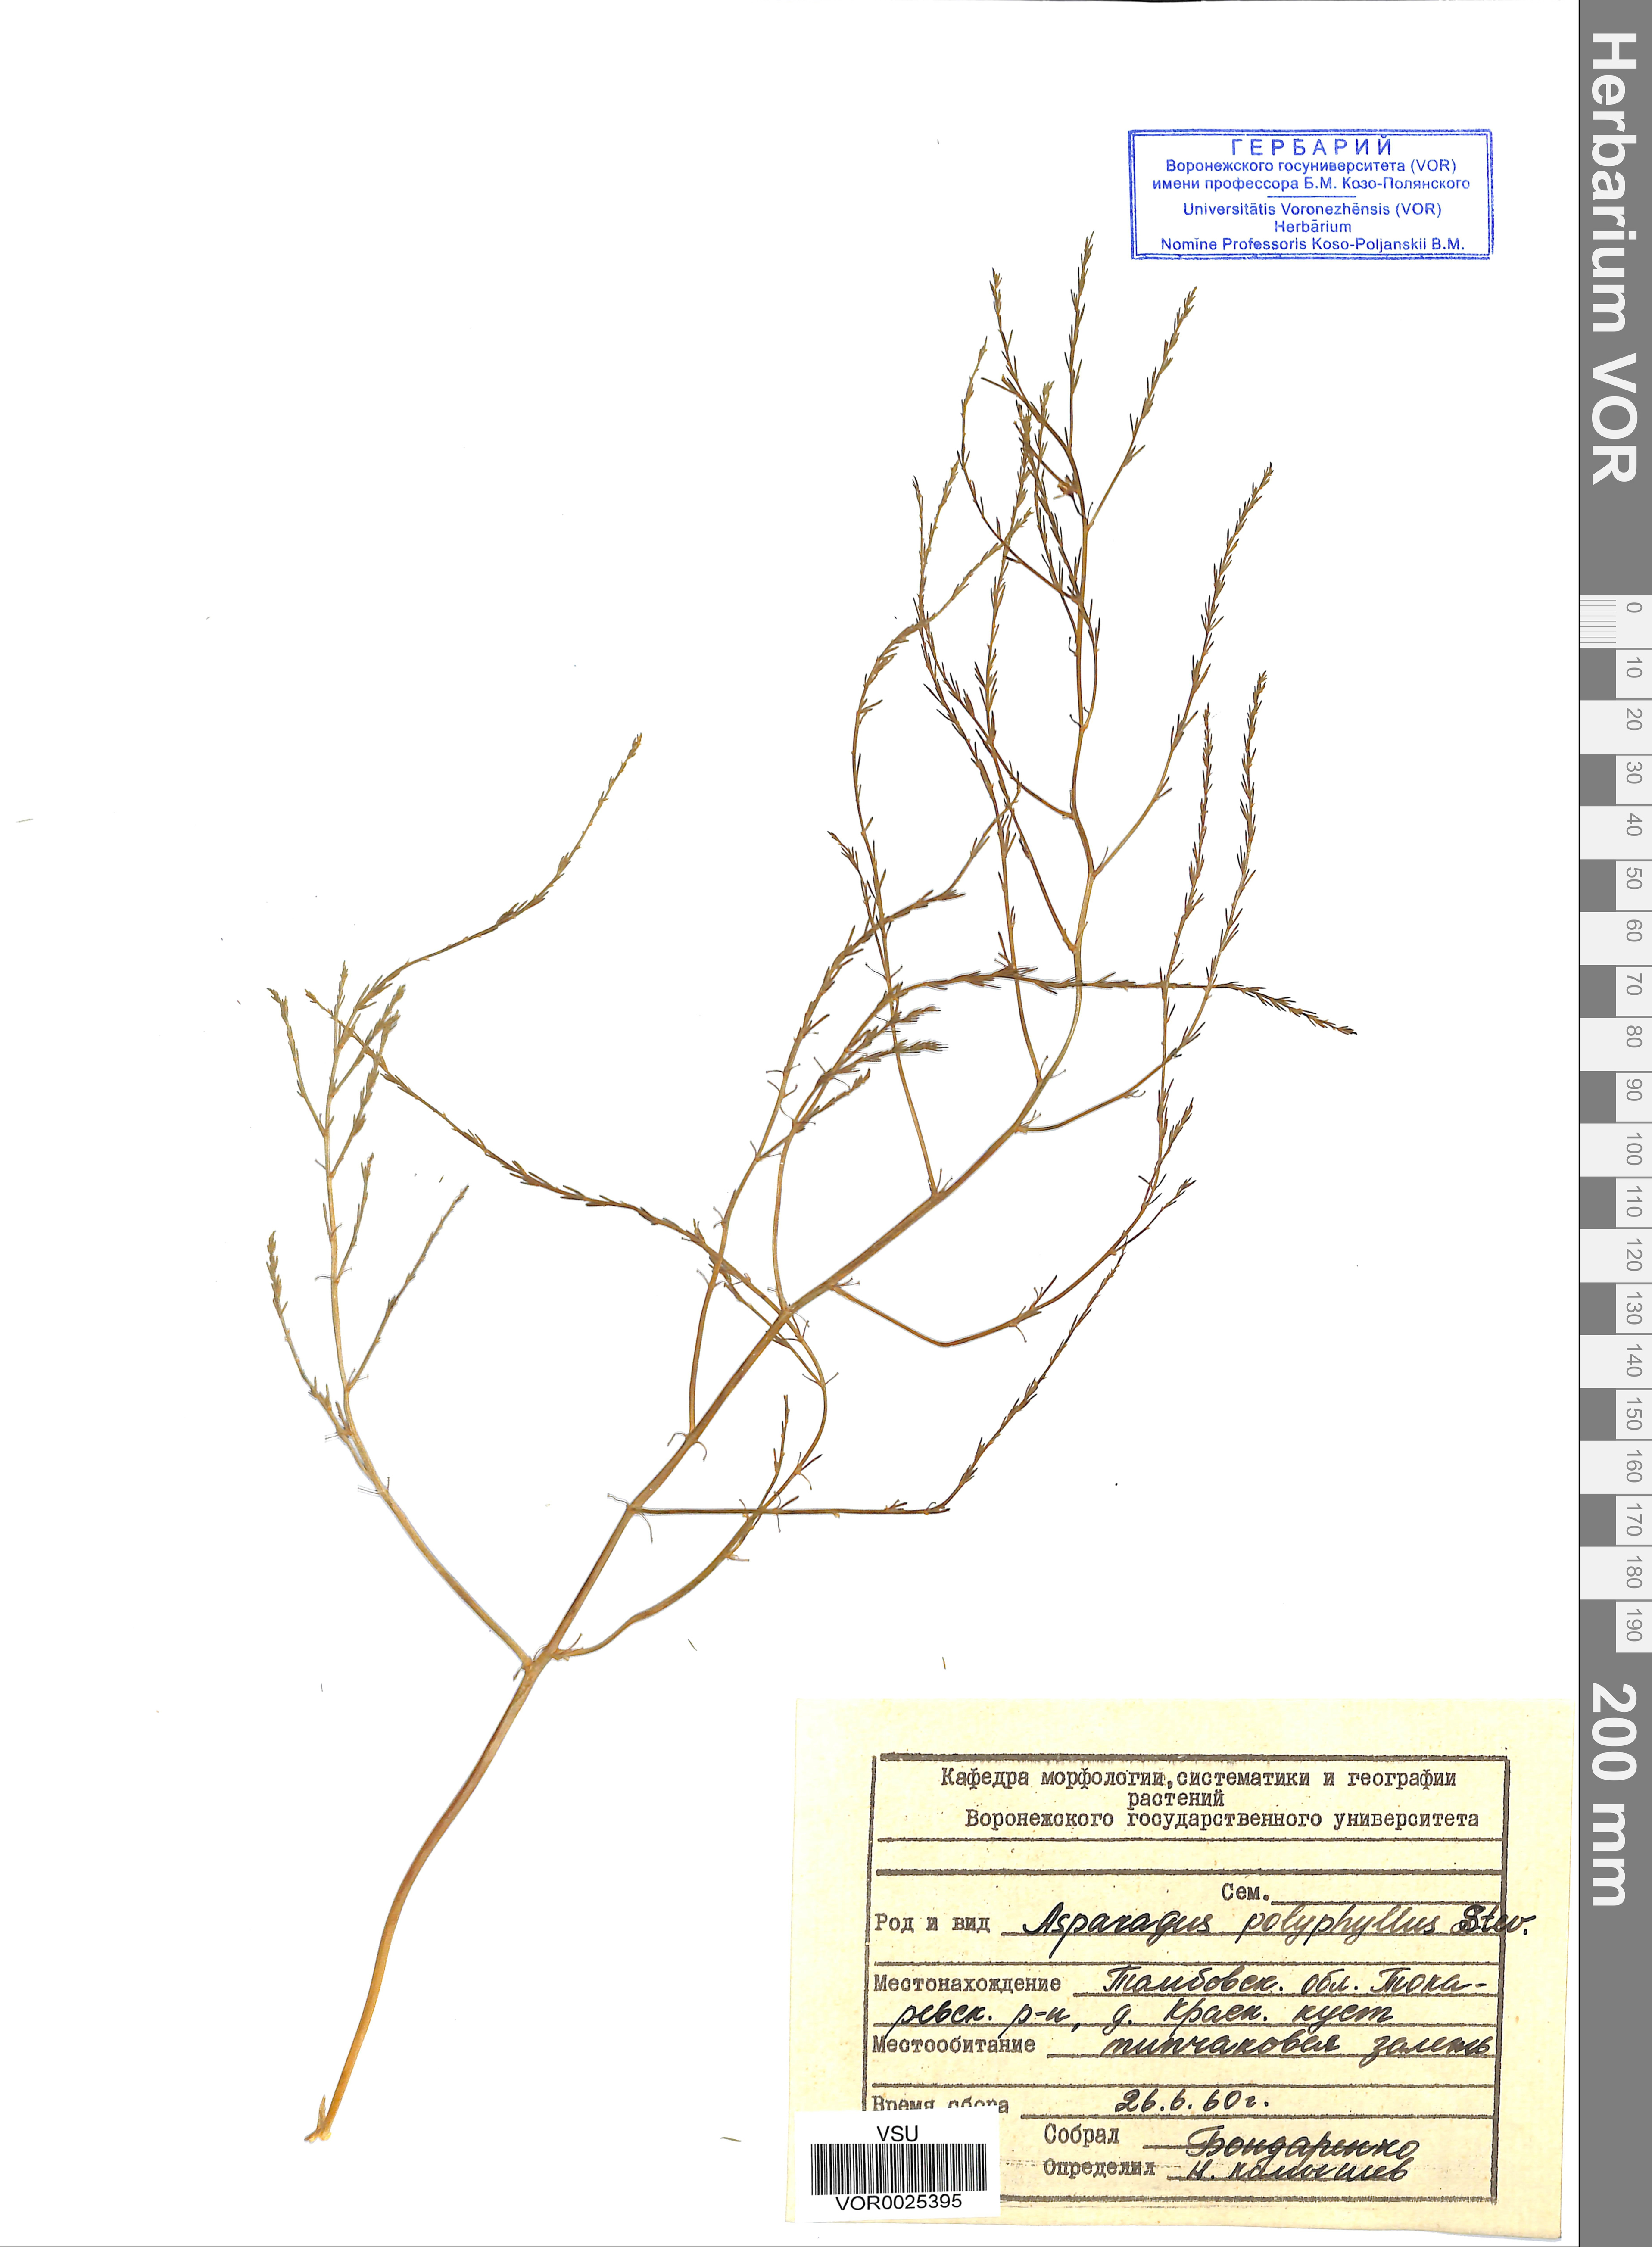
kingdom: Plantae
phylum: Tracheophyta
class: Liliopsida
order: Asparagales
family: Asparagaceae
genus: Asparagus
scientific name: Asparagus officinalis
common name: Garden asparagus
